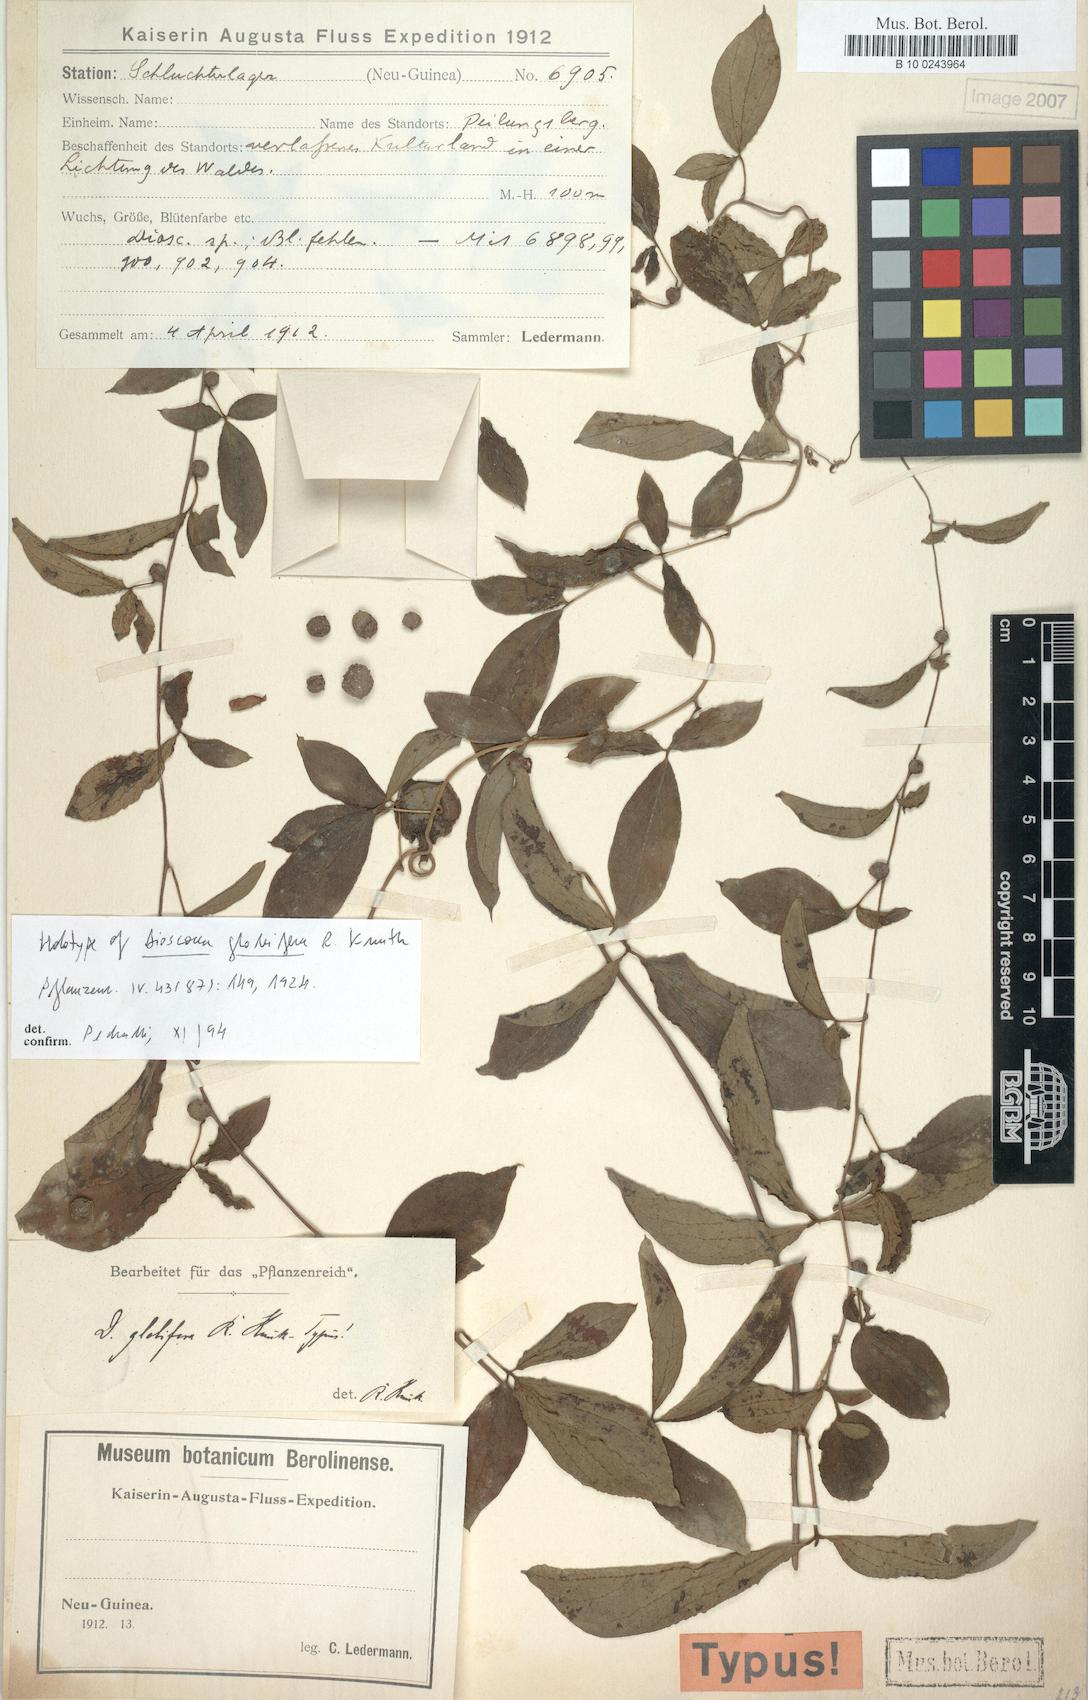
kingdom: Plantae
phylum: Tracheophyta
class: Liliopsida
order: Dioscoreales
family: Dioscoreaceae
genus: Dioscorea
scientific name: Dioscorea pentaphylla
